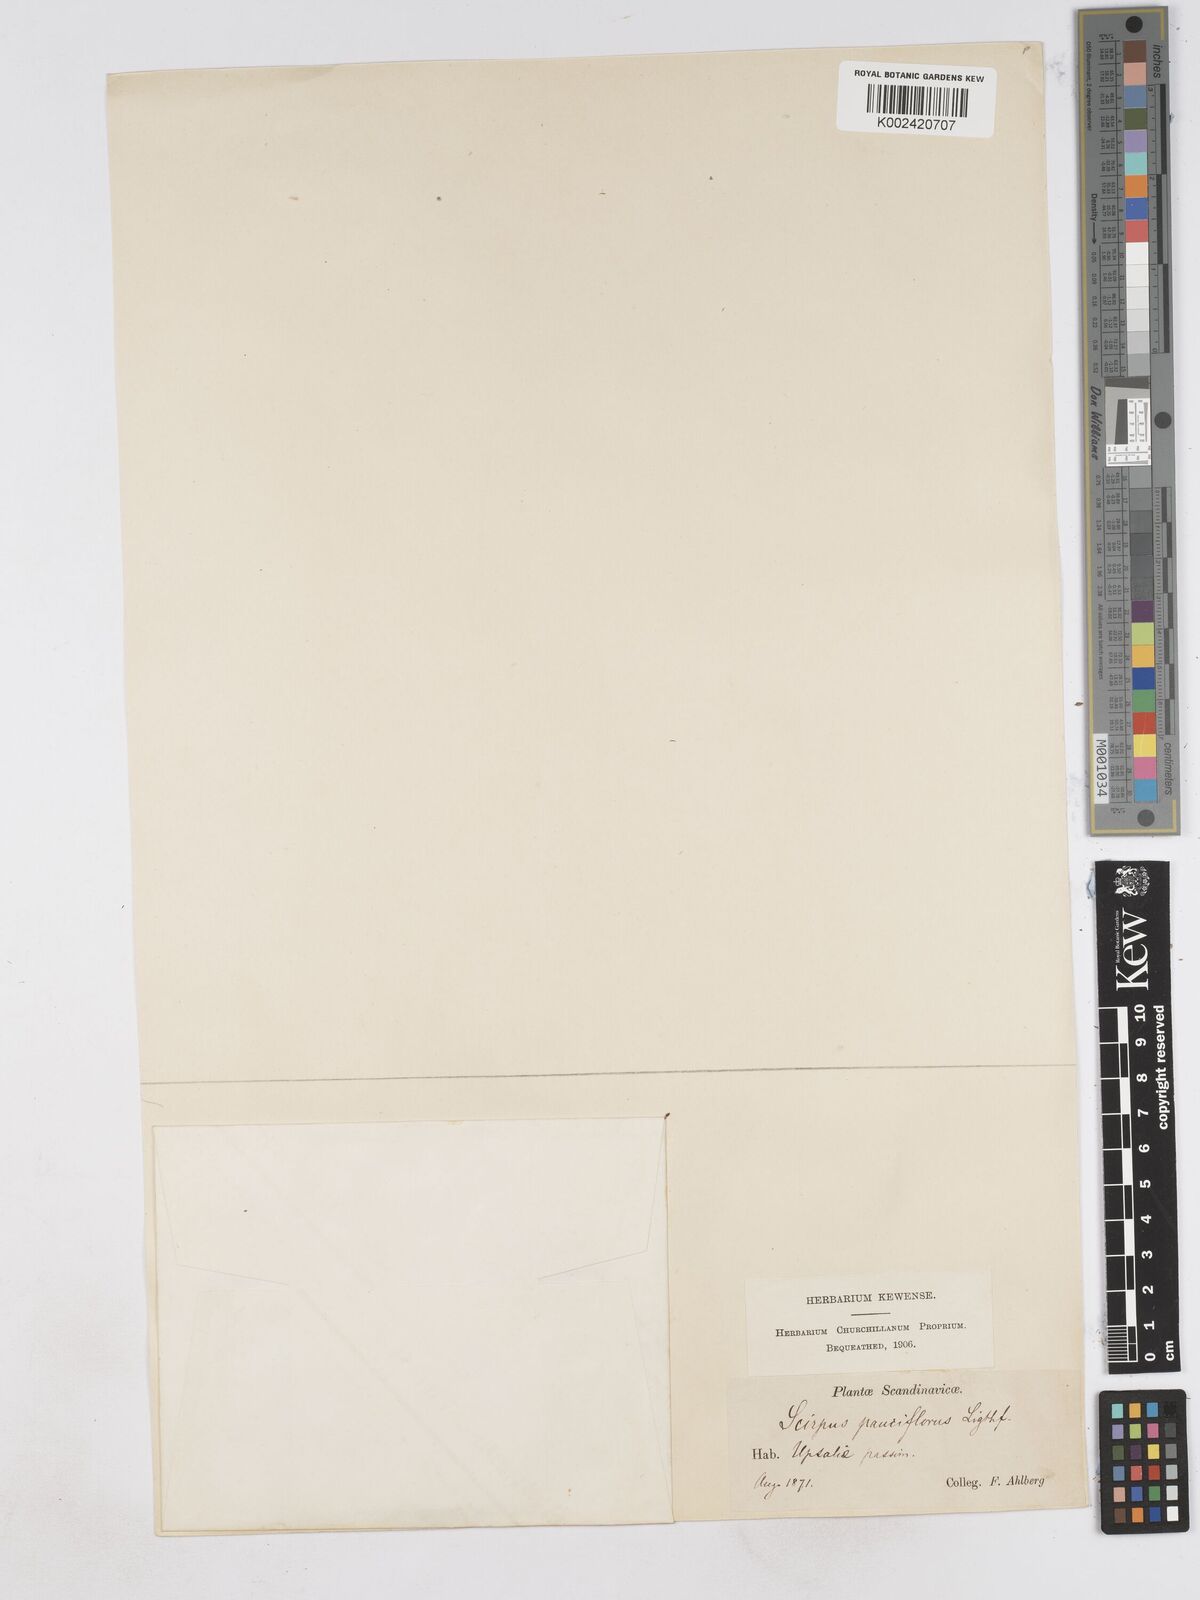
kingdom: Plantae
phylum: Tracheophyta
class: Liliopsida
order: Poales
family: Cyperaceae
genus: Eleocharis
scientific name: Eleocharis quinqueflora
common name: Few-flowered spike-rush
